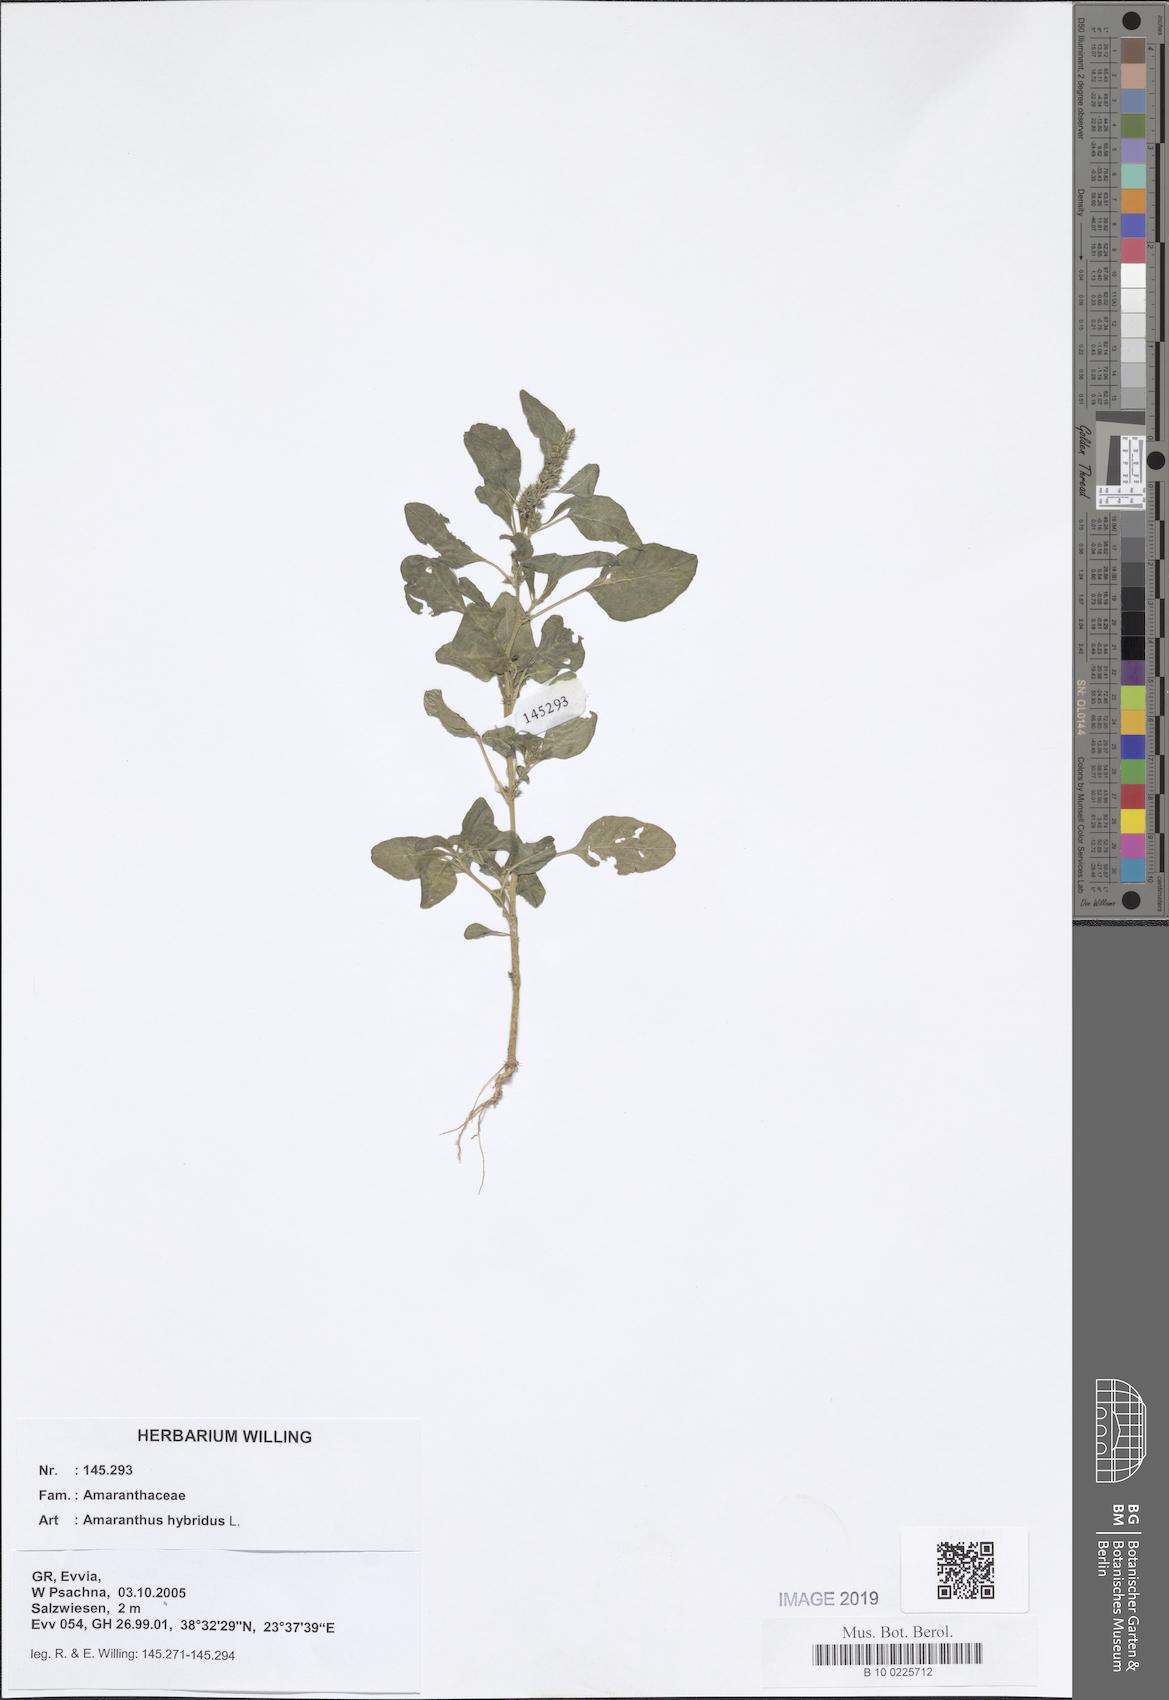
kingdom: Plantae
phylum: Tracheophyta
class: Magnoliopsida
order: Caryophyllales
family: Amaranthaceae
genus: Amaranthus
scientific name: Amaranthus hybridus
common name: Green amaranth
